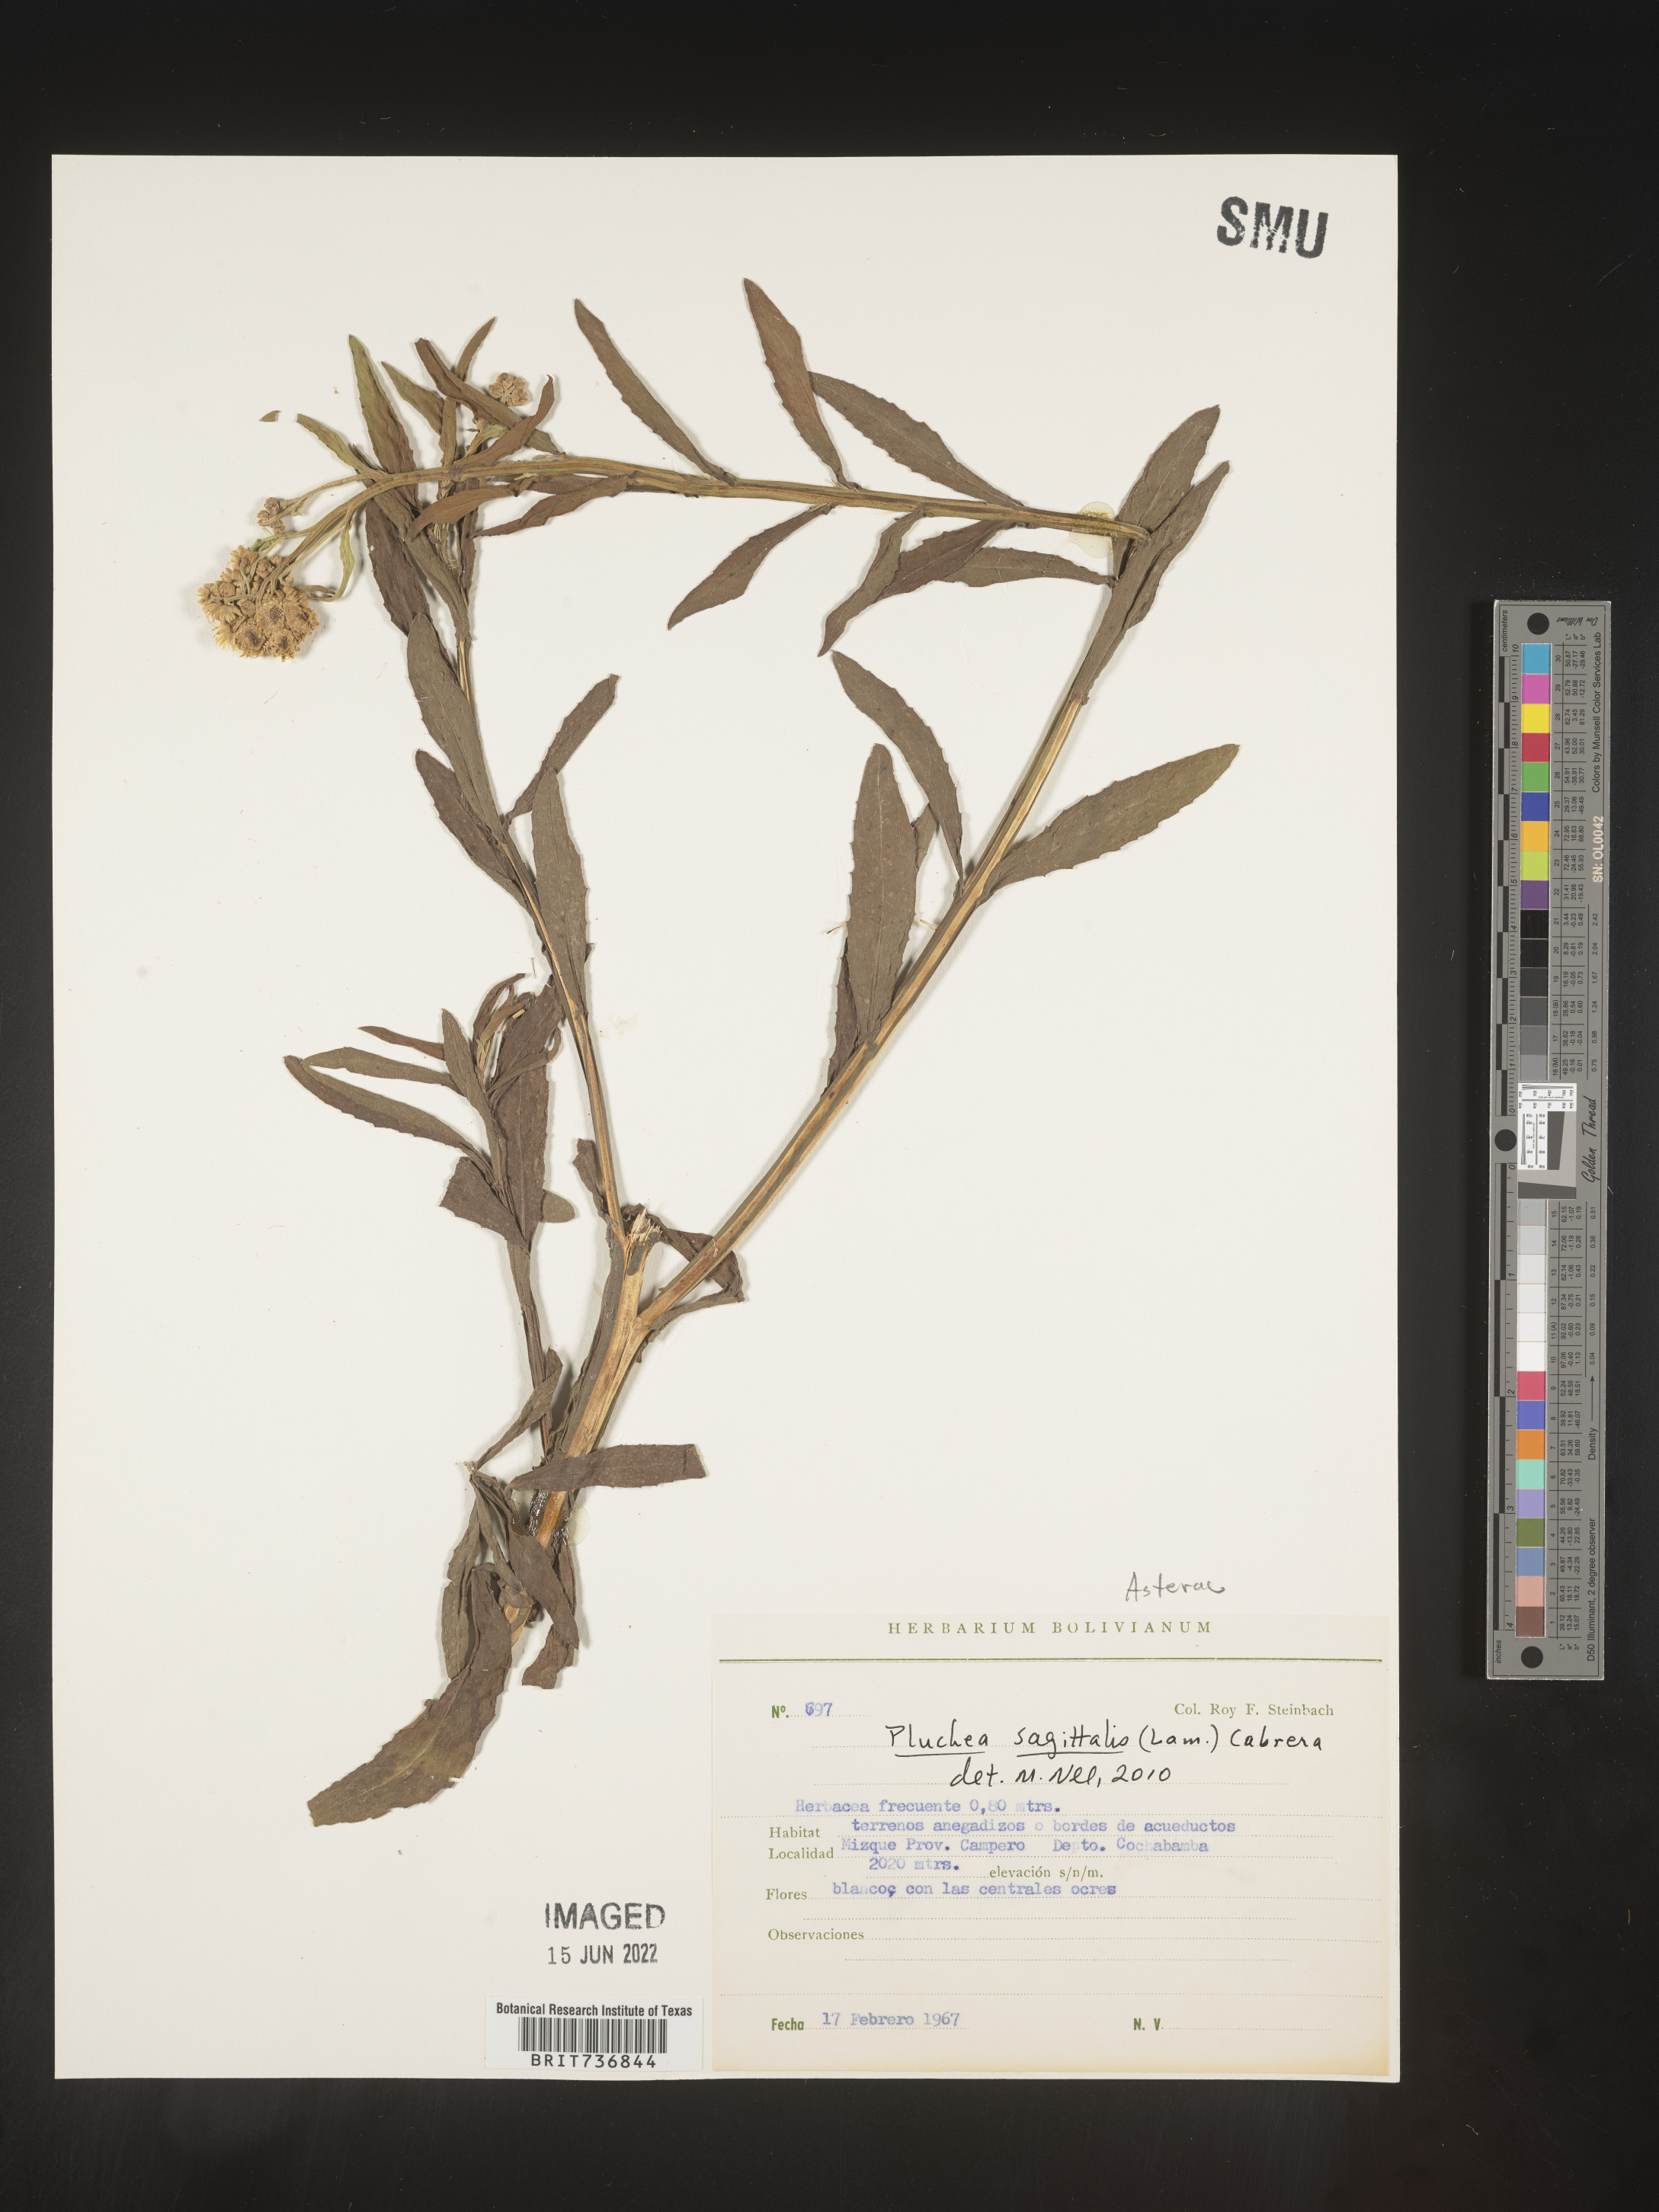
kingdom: Plantae
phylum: Tracheophyta
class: Magnoliopsida
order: Asterales
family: Asteraceae
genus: Pluchea
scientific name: Pluchea
